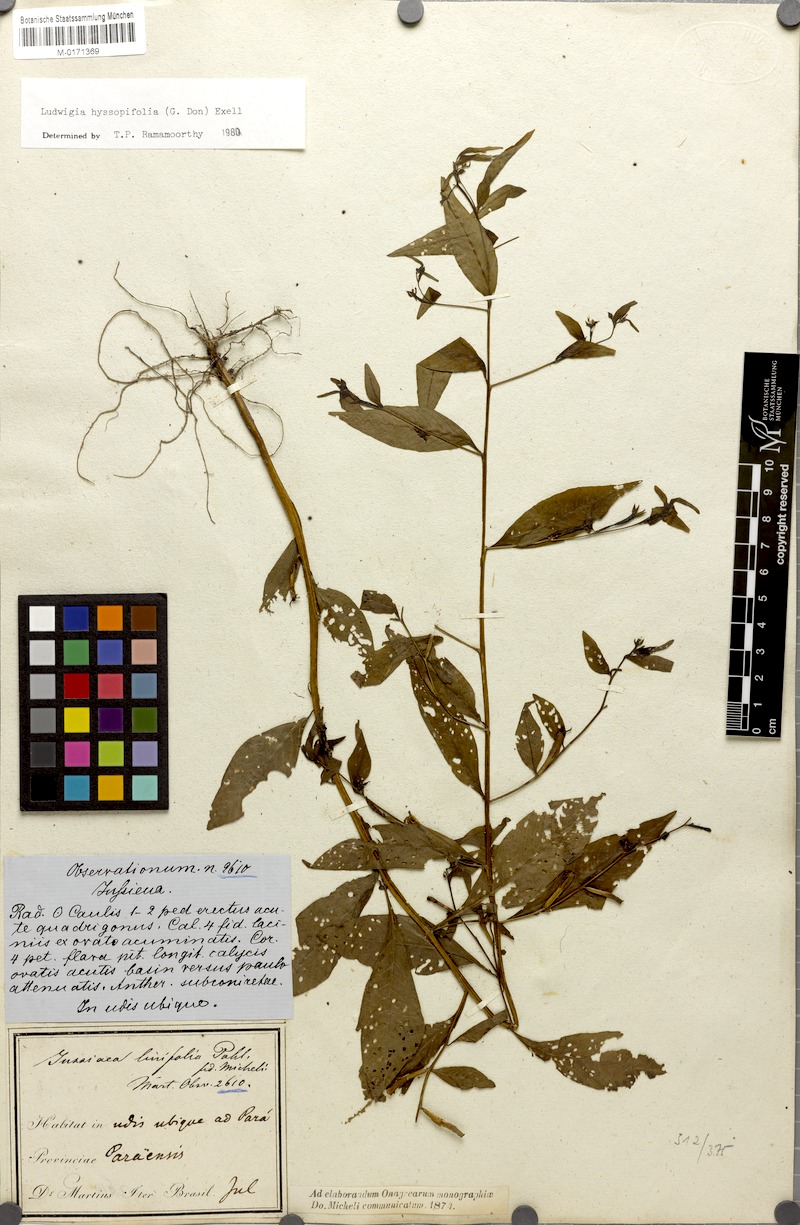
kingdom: Plantae
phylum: Tracheophyta
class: Magnoliopsida
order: Myrtales
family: Onagraceae
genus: Ludwigia
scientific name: Ludwigia hyssopifolia
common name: Linear leaf water primrose
